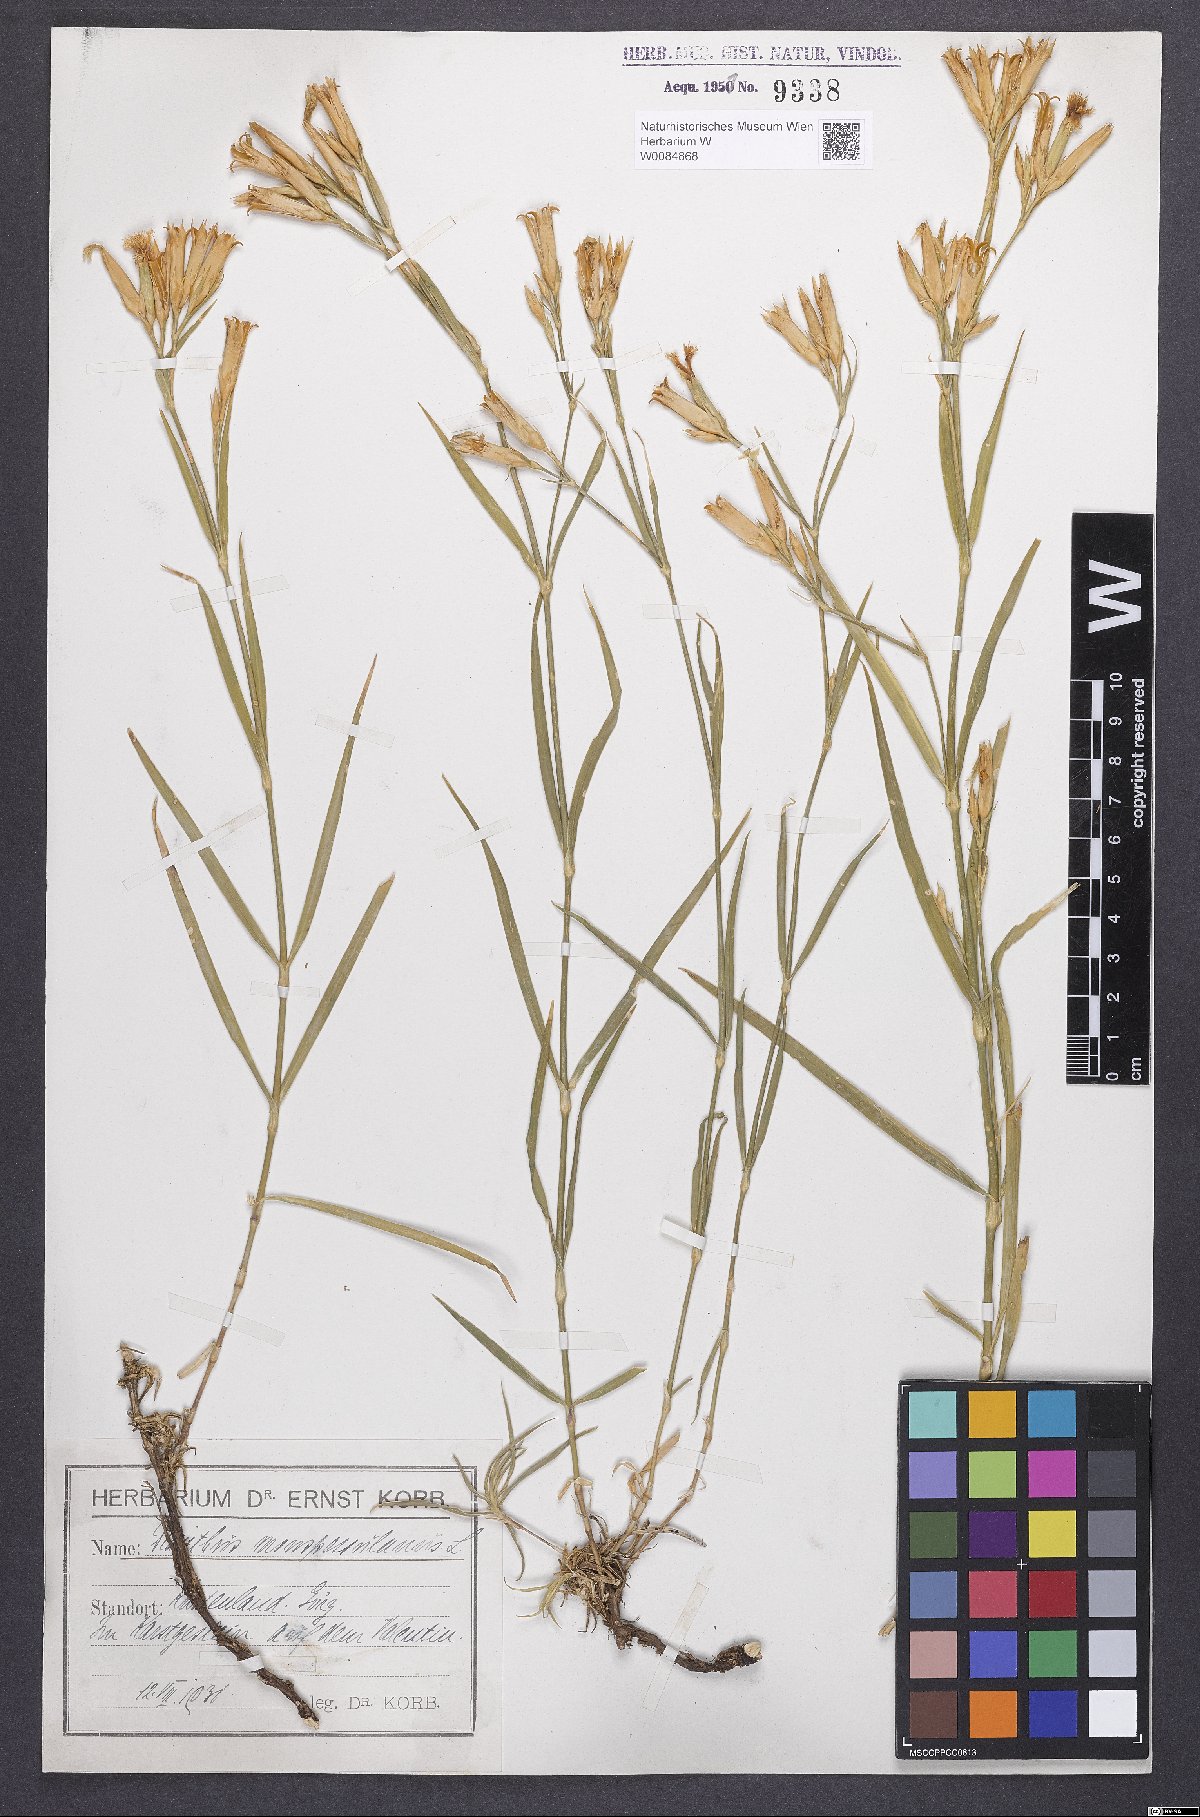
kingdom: Plantae
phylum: Tracheophyta
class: Magnoliopsida
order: Caryophyllales
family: Caryophyllaceae
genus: Dianthus
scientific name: Dianthus hyssopifolius
